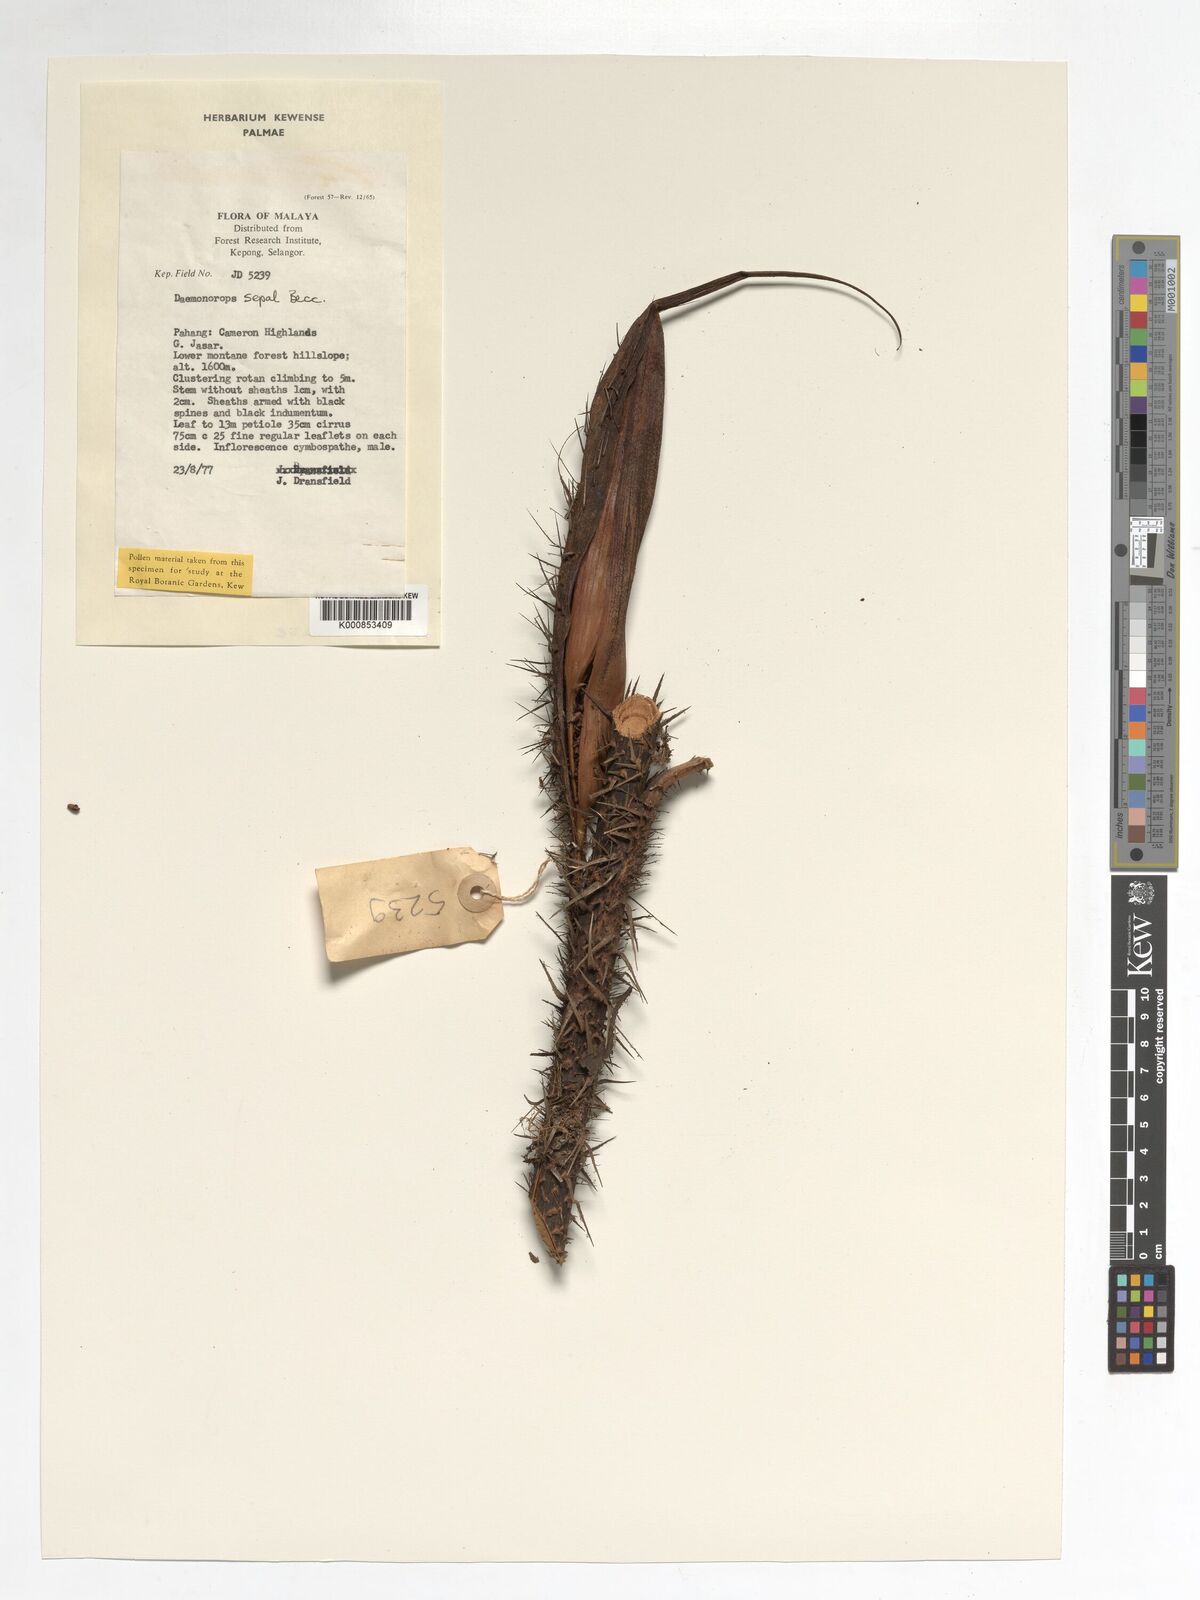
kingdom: Plantae
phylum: Tracheophyta
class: Liliopsida
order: Arecales
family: Arecaceae
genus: Calamus
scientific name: Calamus melanochaetes
